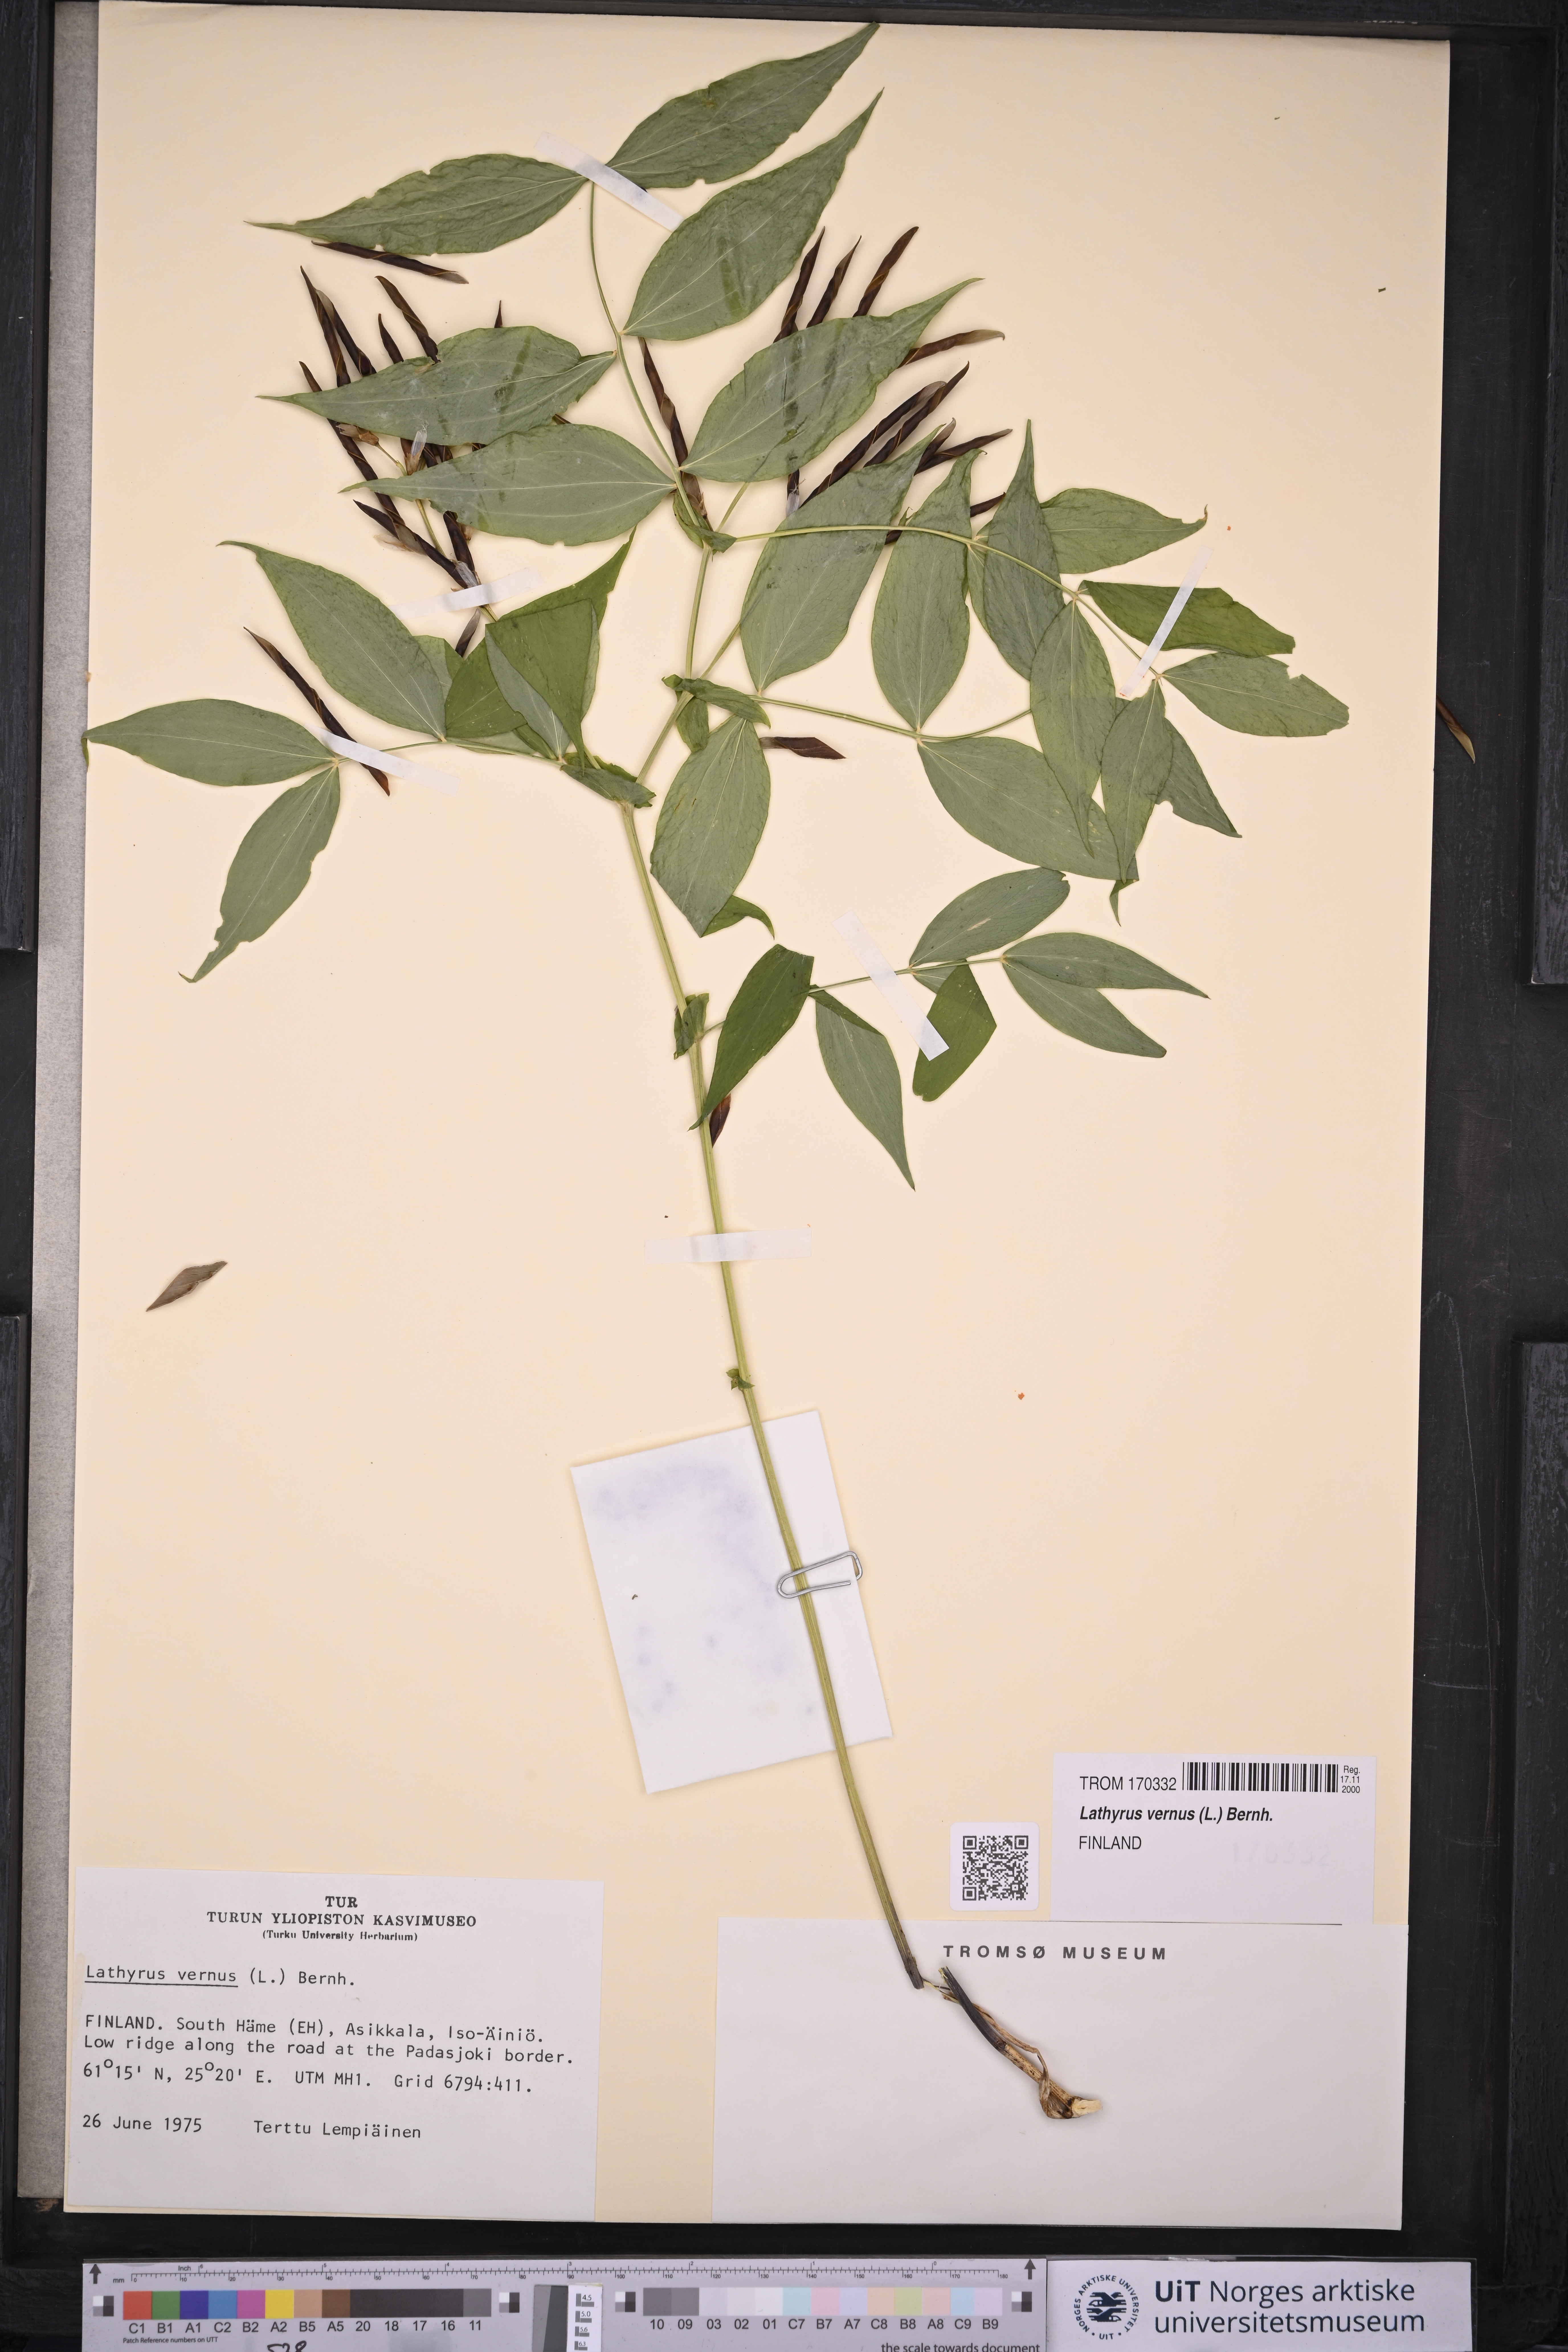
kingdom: Plantae
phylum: Tracheophyta
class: Magnoliopsida
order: Fabales
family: Fabaceae
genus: Lathyrus
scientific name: Lathyrus vernus
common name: Spring pea
